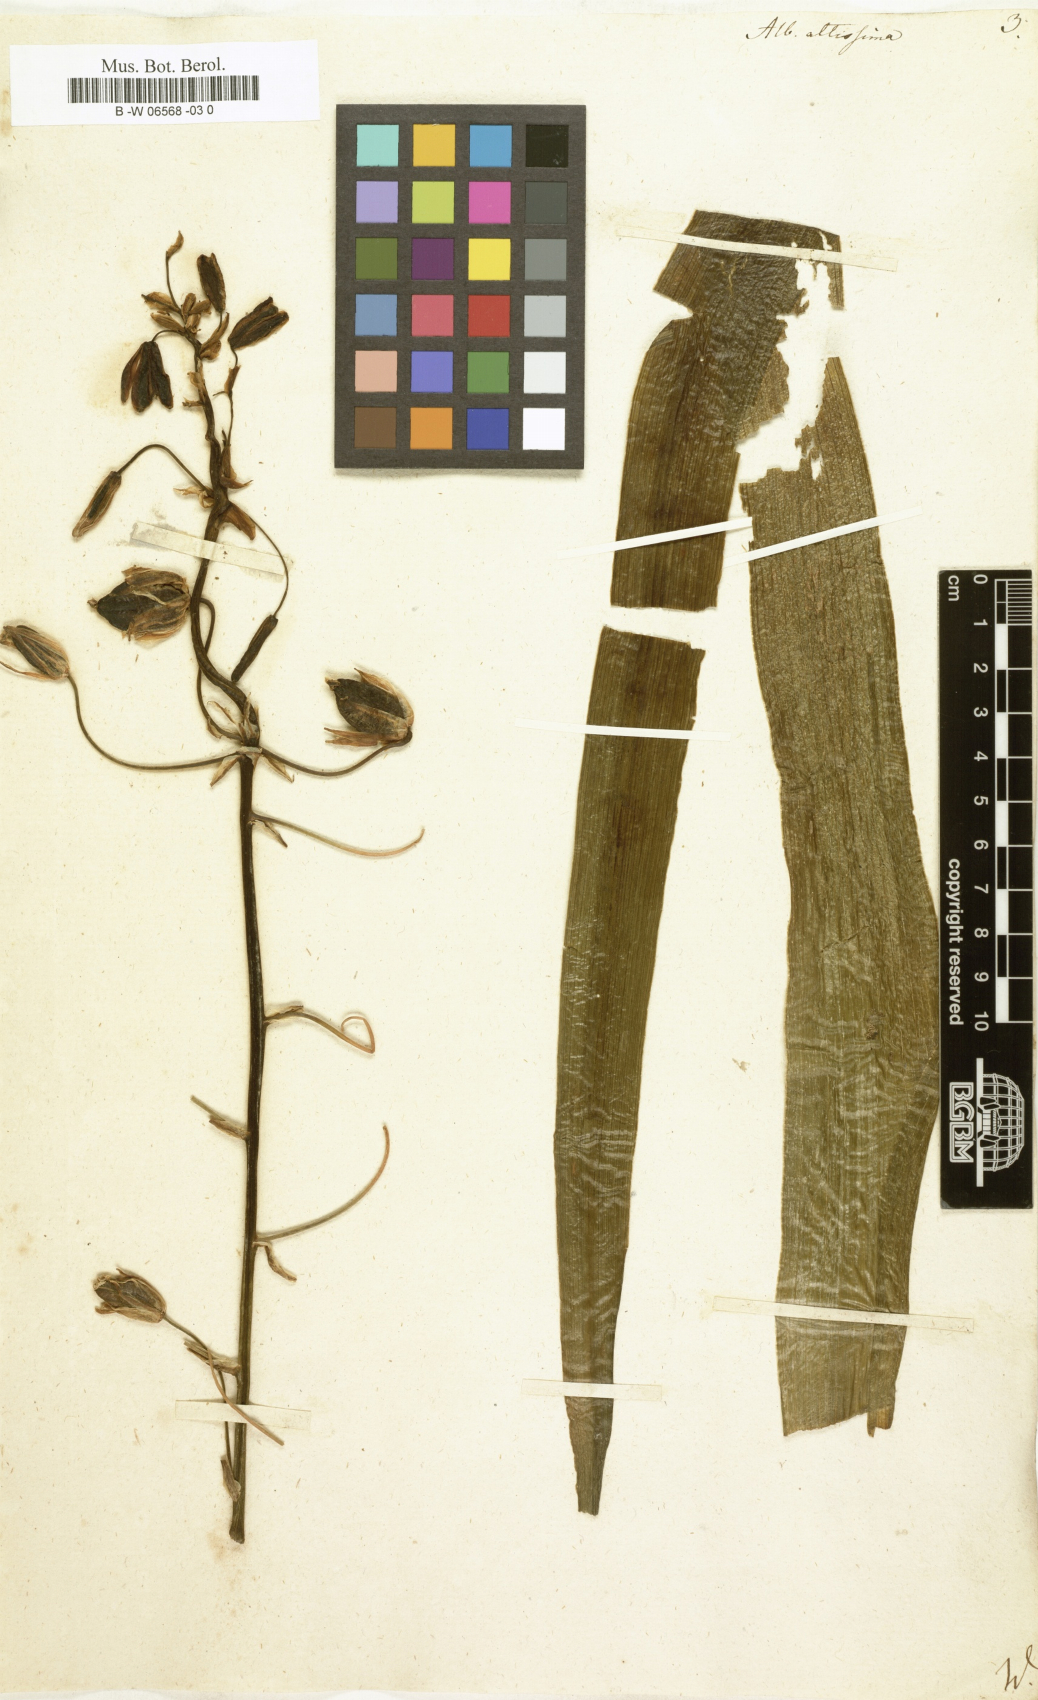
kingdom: Plantae
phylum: Tracheophyta
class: Liliopsida
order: Asparagales
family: Asparagaceae
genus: Albuca
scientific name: Albuca canadensis
